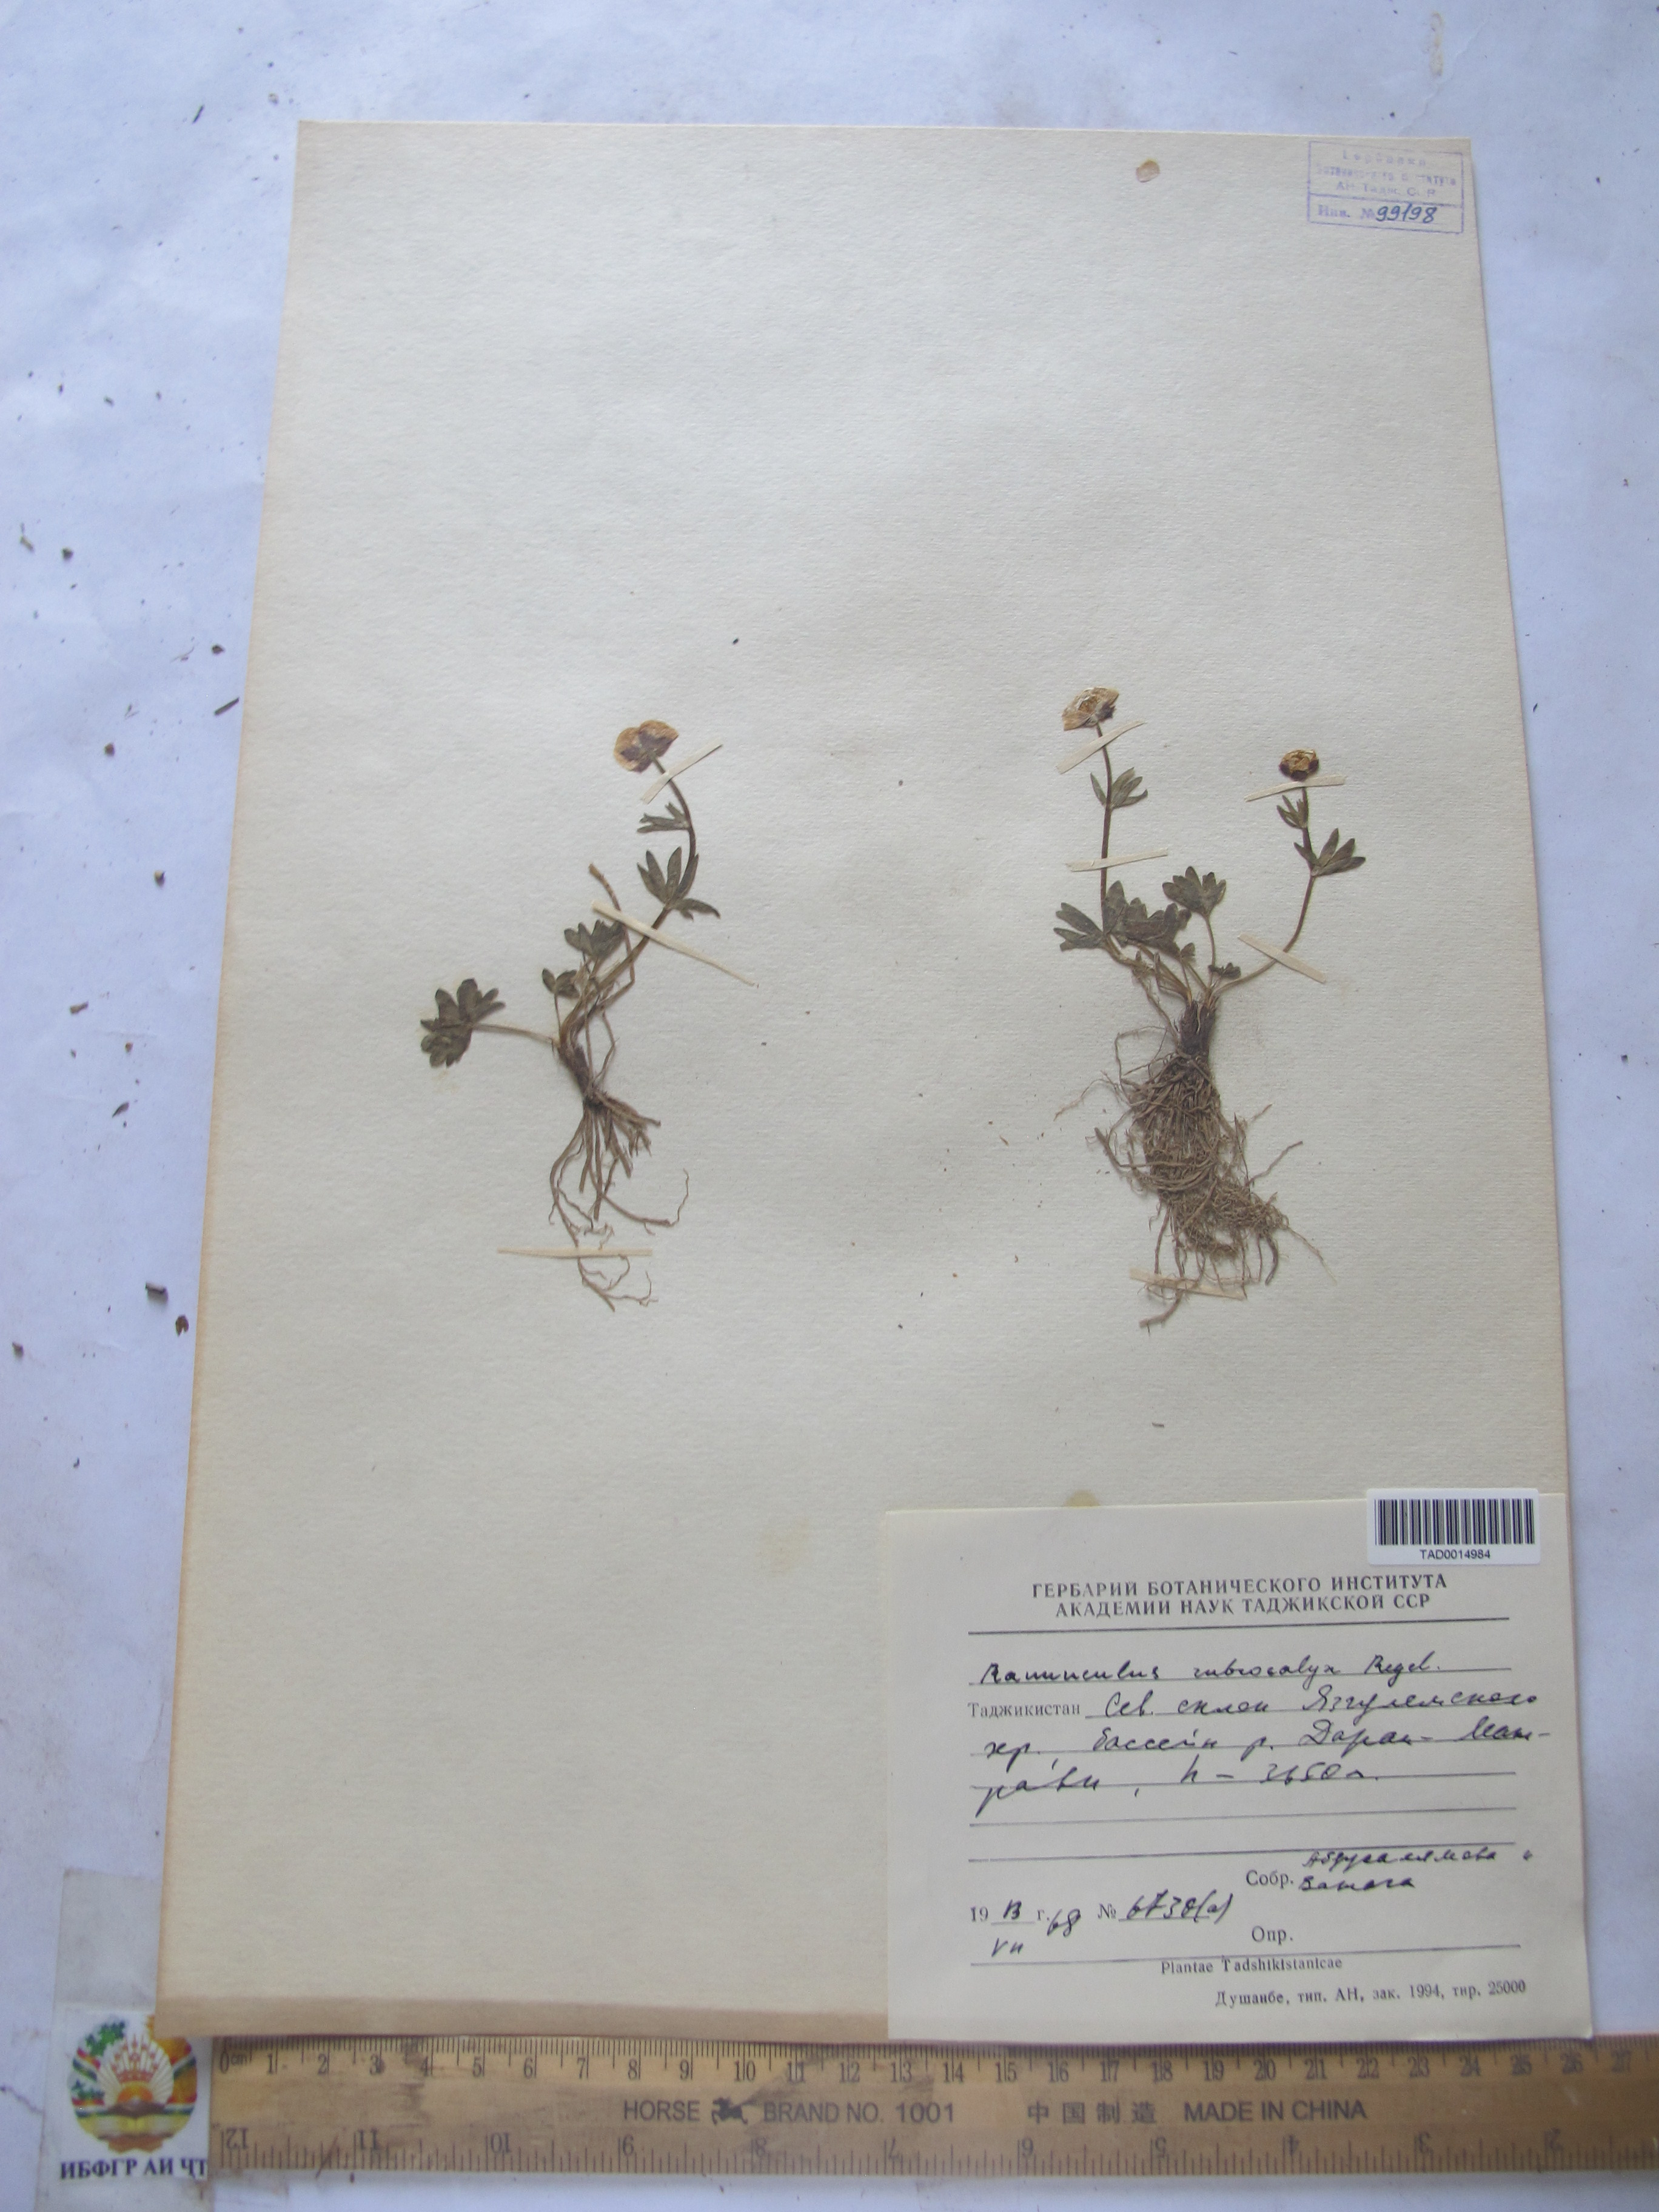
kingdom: Plantae
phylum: Tracheophyta
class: Magnoliopsida
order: Ranunculales
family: Ranunculaceae
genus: Ranunculus
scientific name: Ranunculus rubrocalyx
